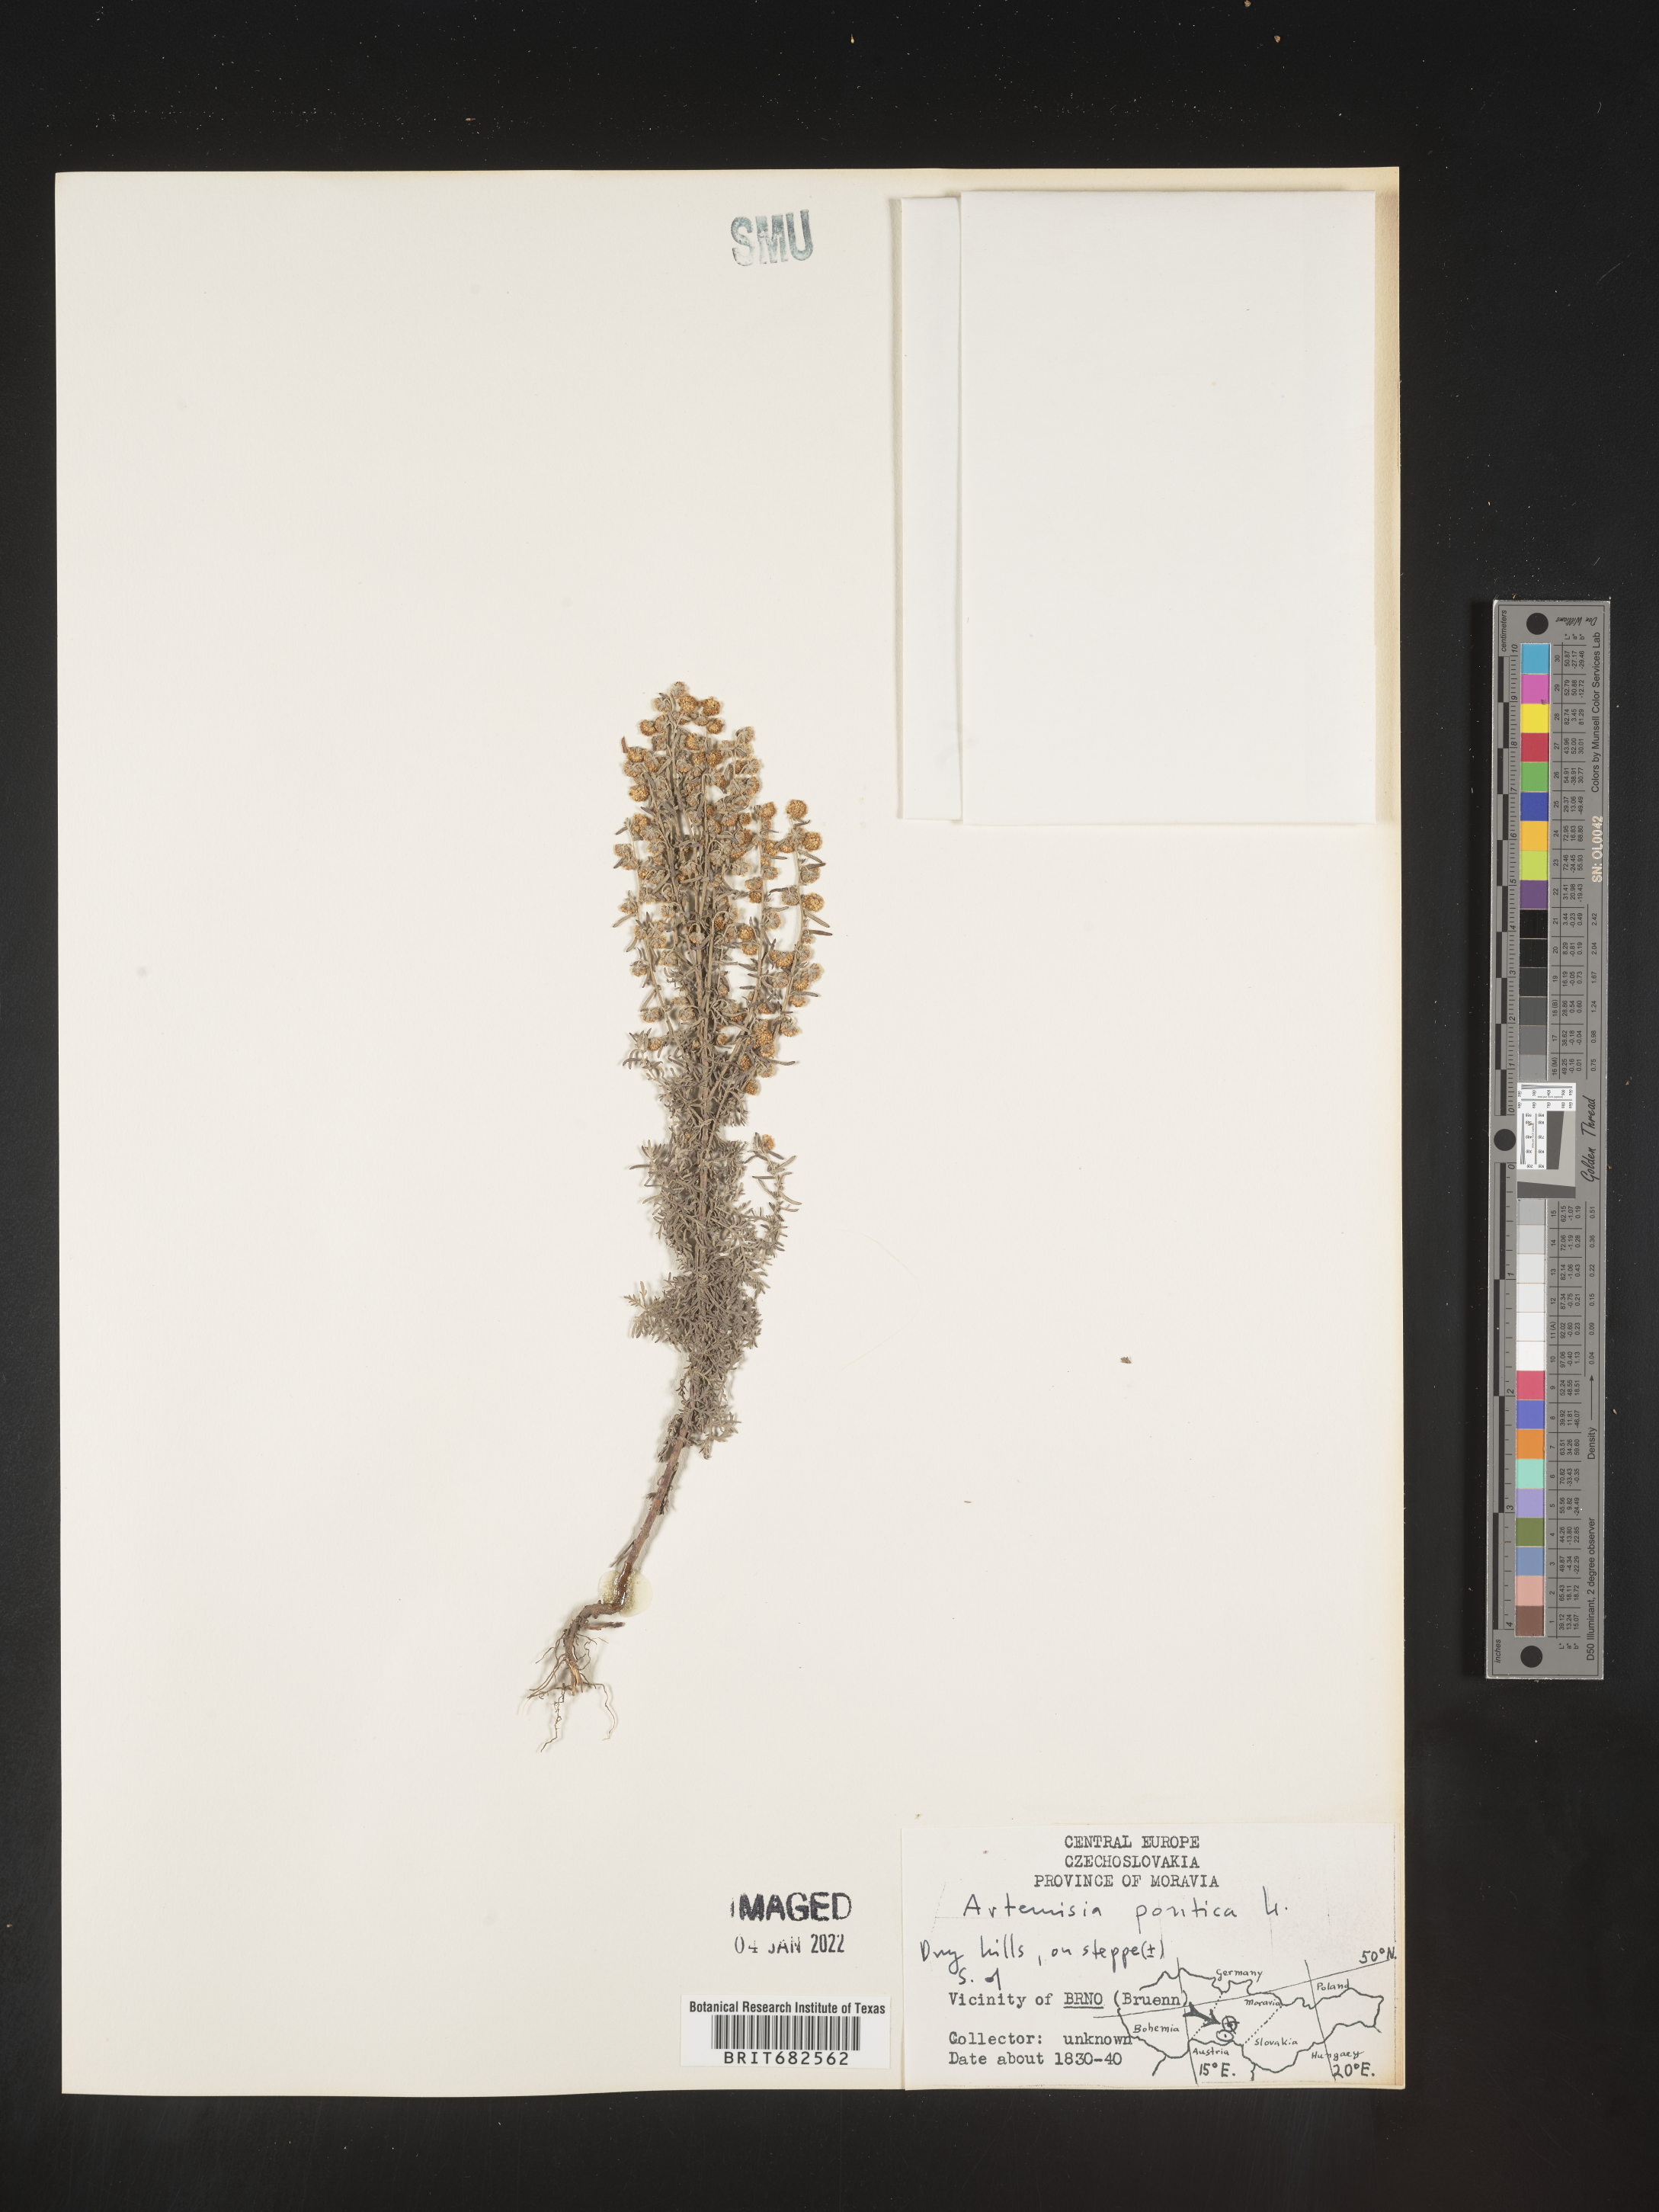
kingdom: Plantae
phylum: Tracheophyta
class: Magnoliopsida
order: Asterales
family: Asteraceae
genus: Artemisia
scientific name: Artemisia
